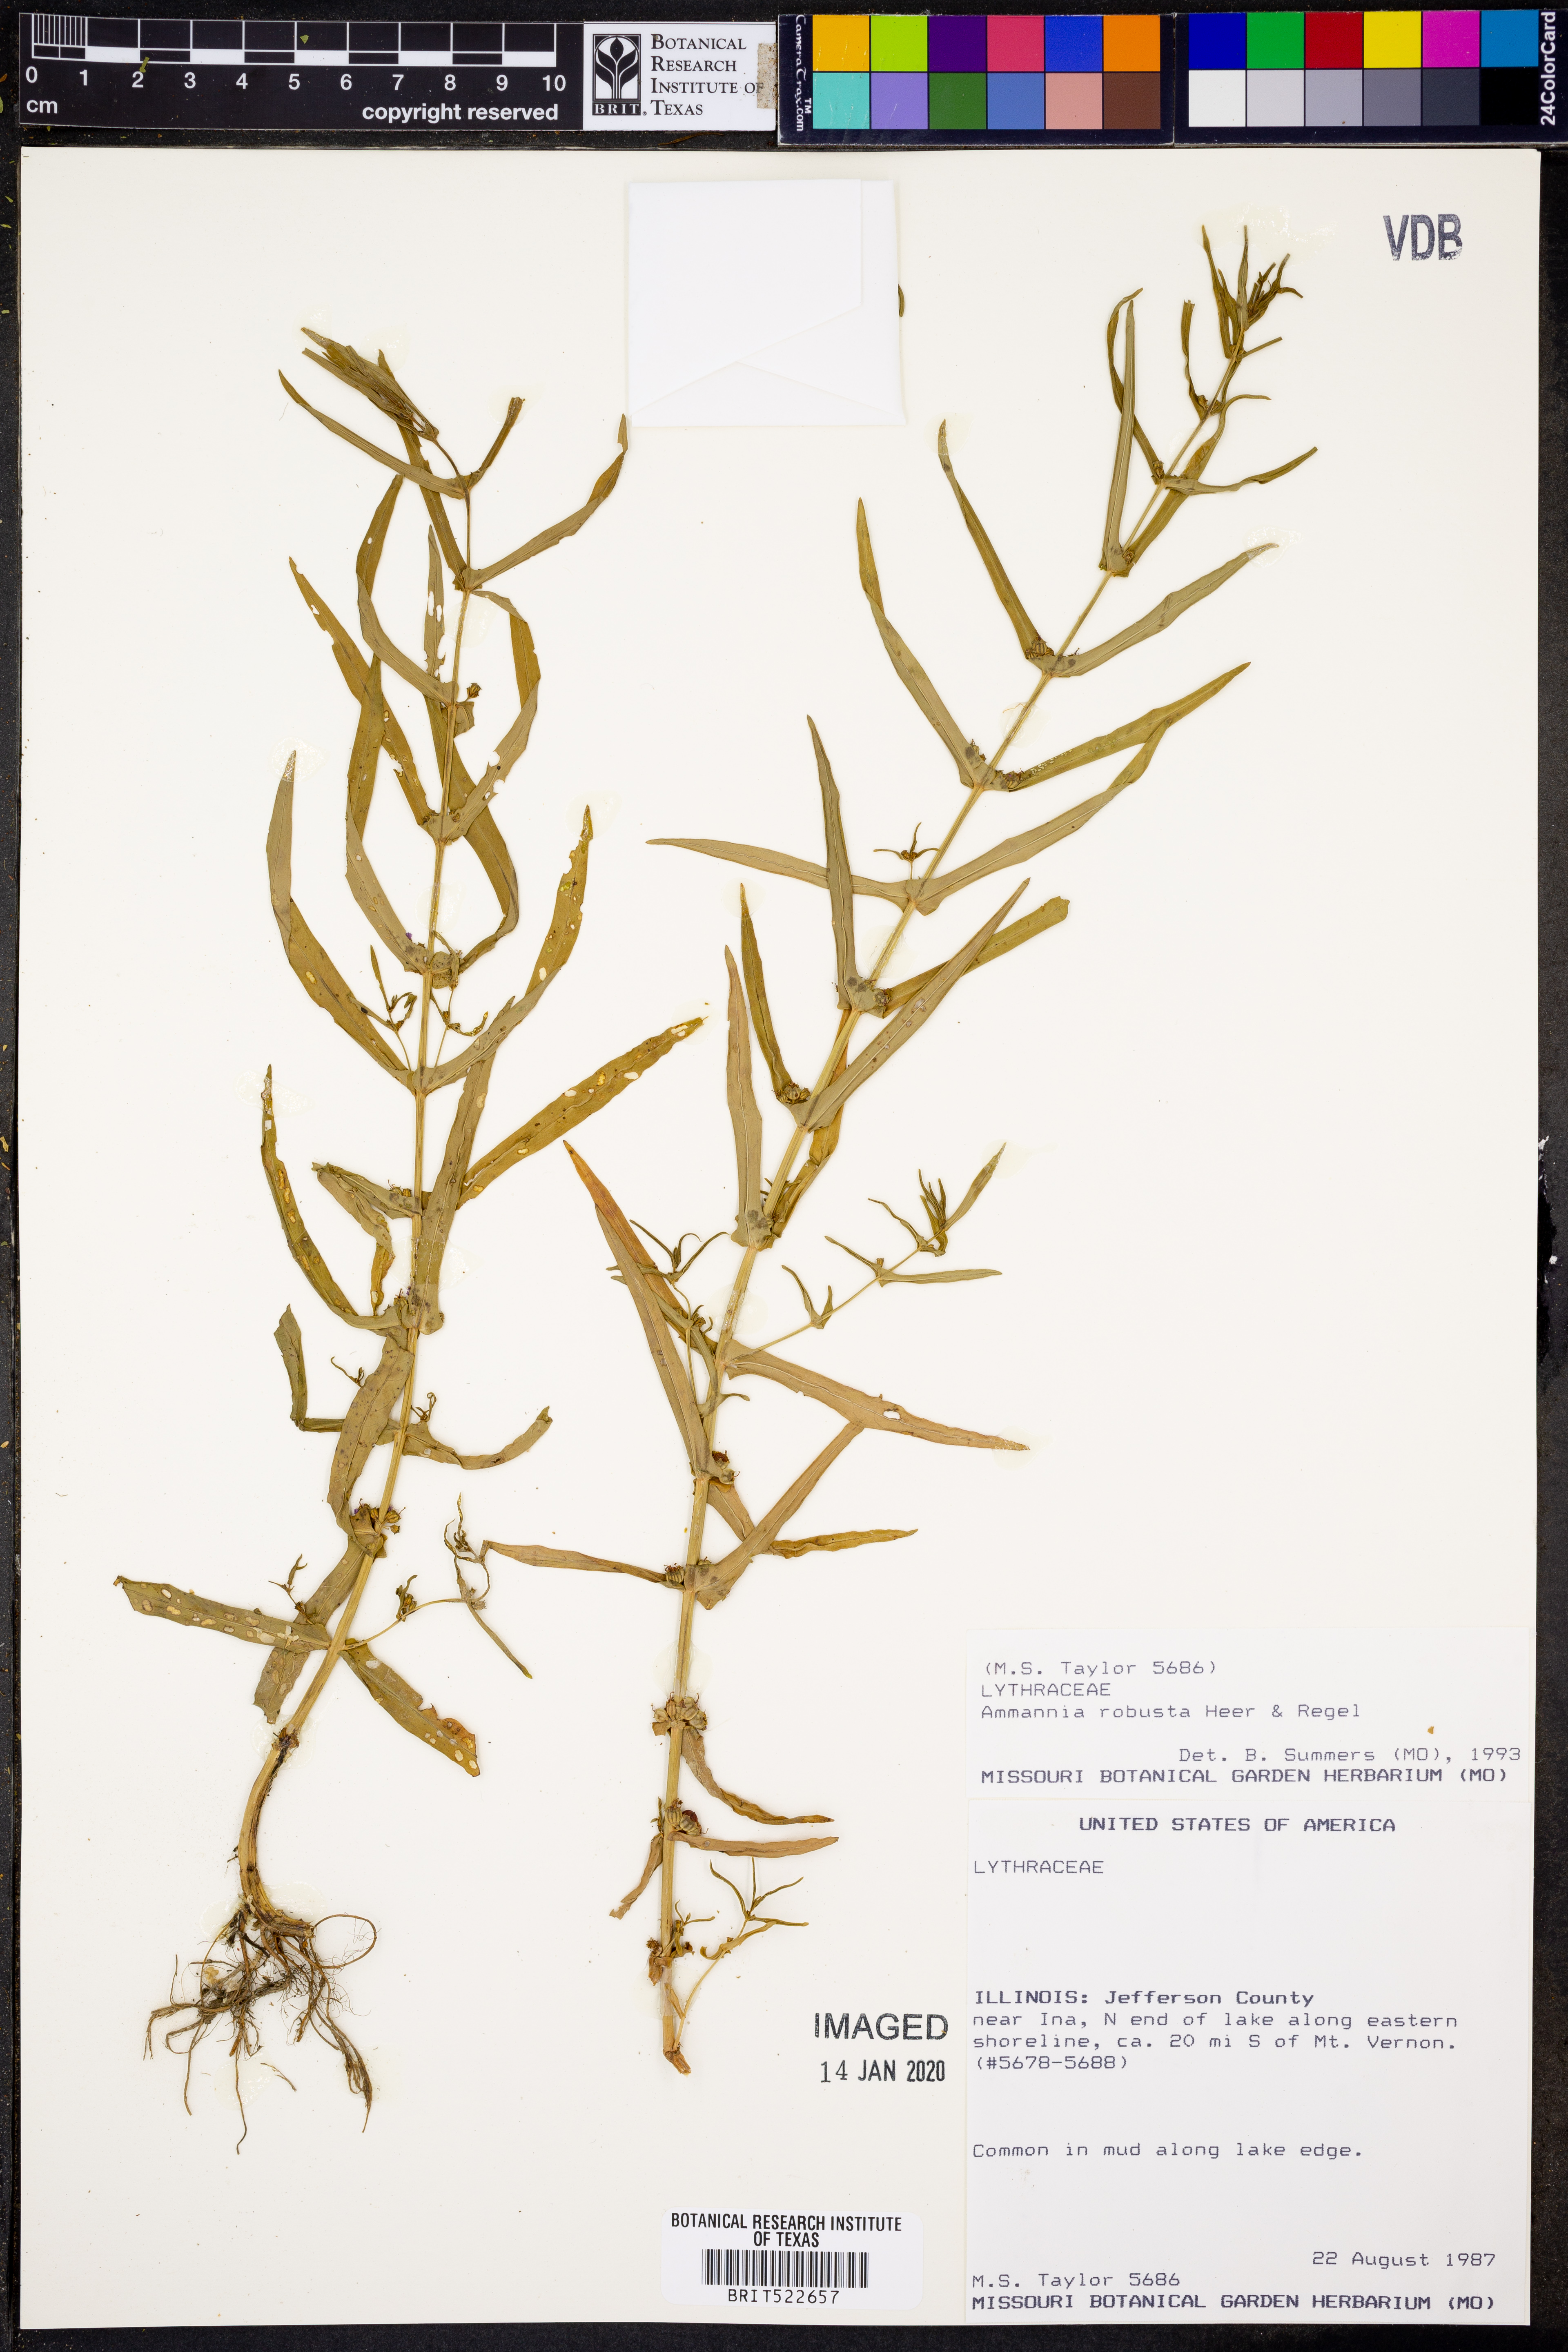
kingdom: Plantae
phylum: Tracheophyta
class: Magnoliopsida
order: Myrtales
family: Lythraceae
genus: Ammannia
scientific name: Ammannia robusta
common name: Grand ammannia
